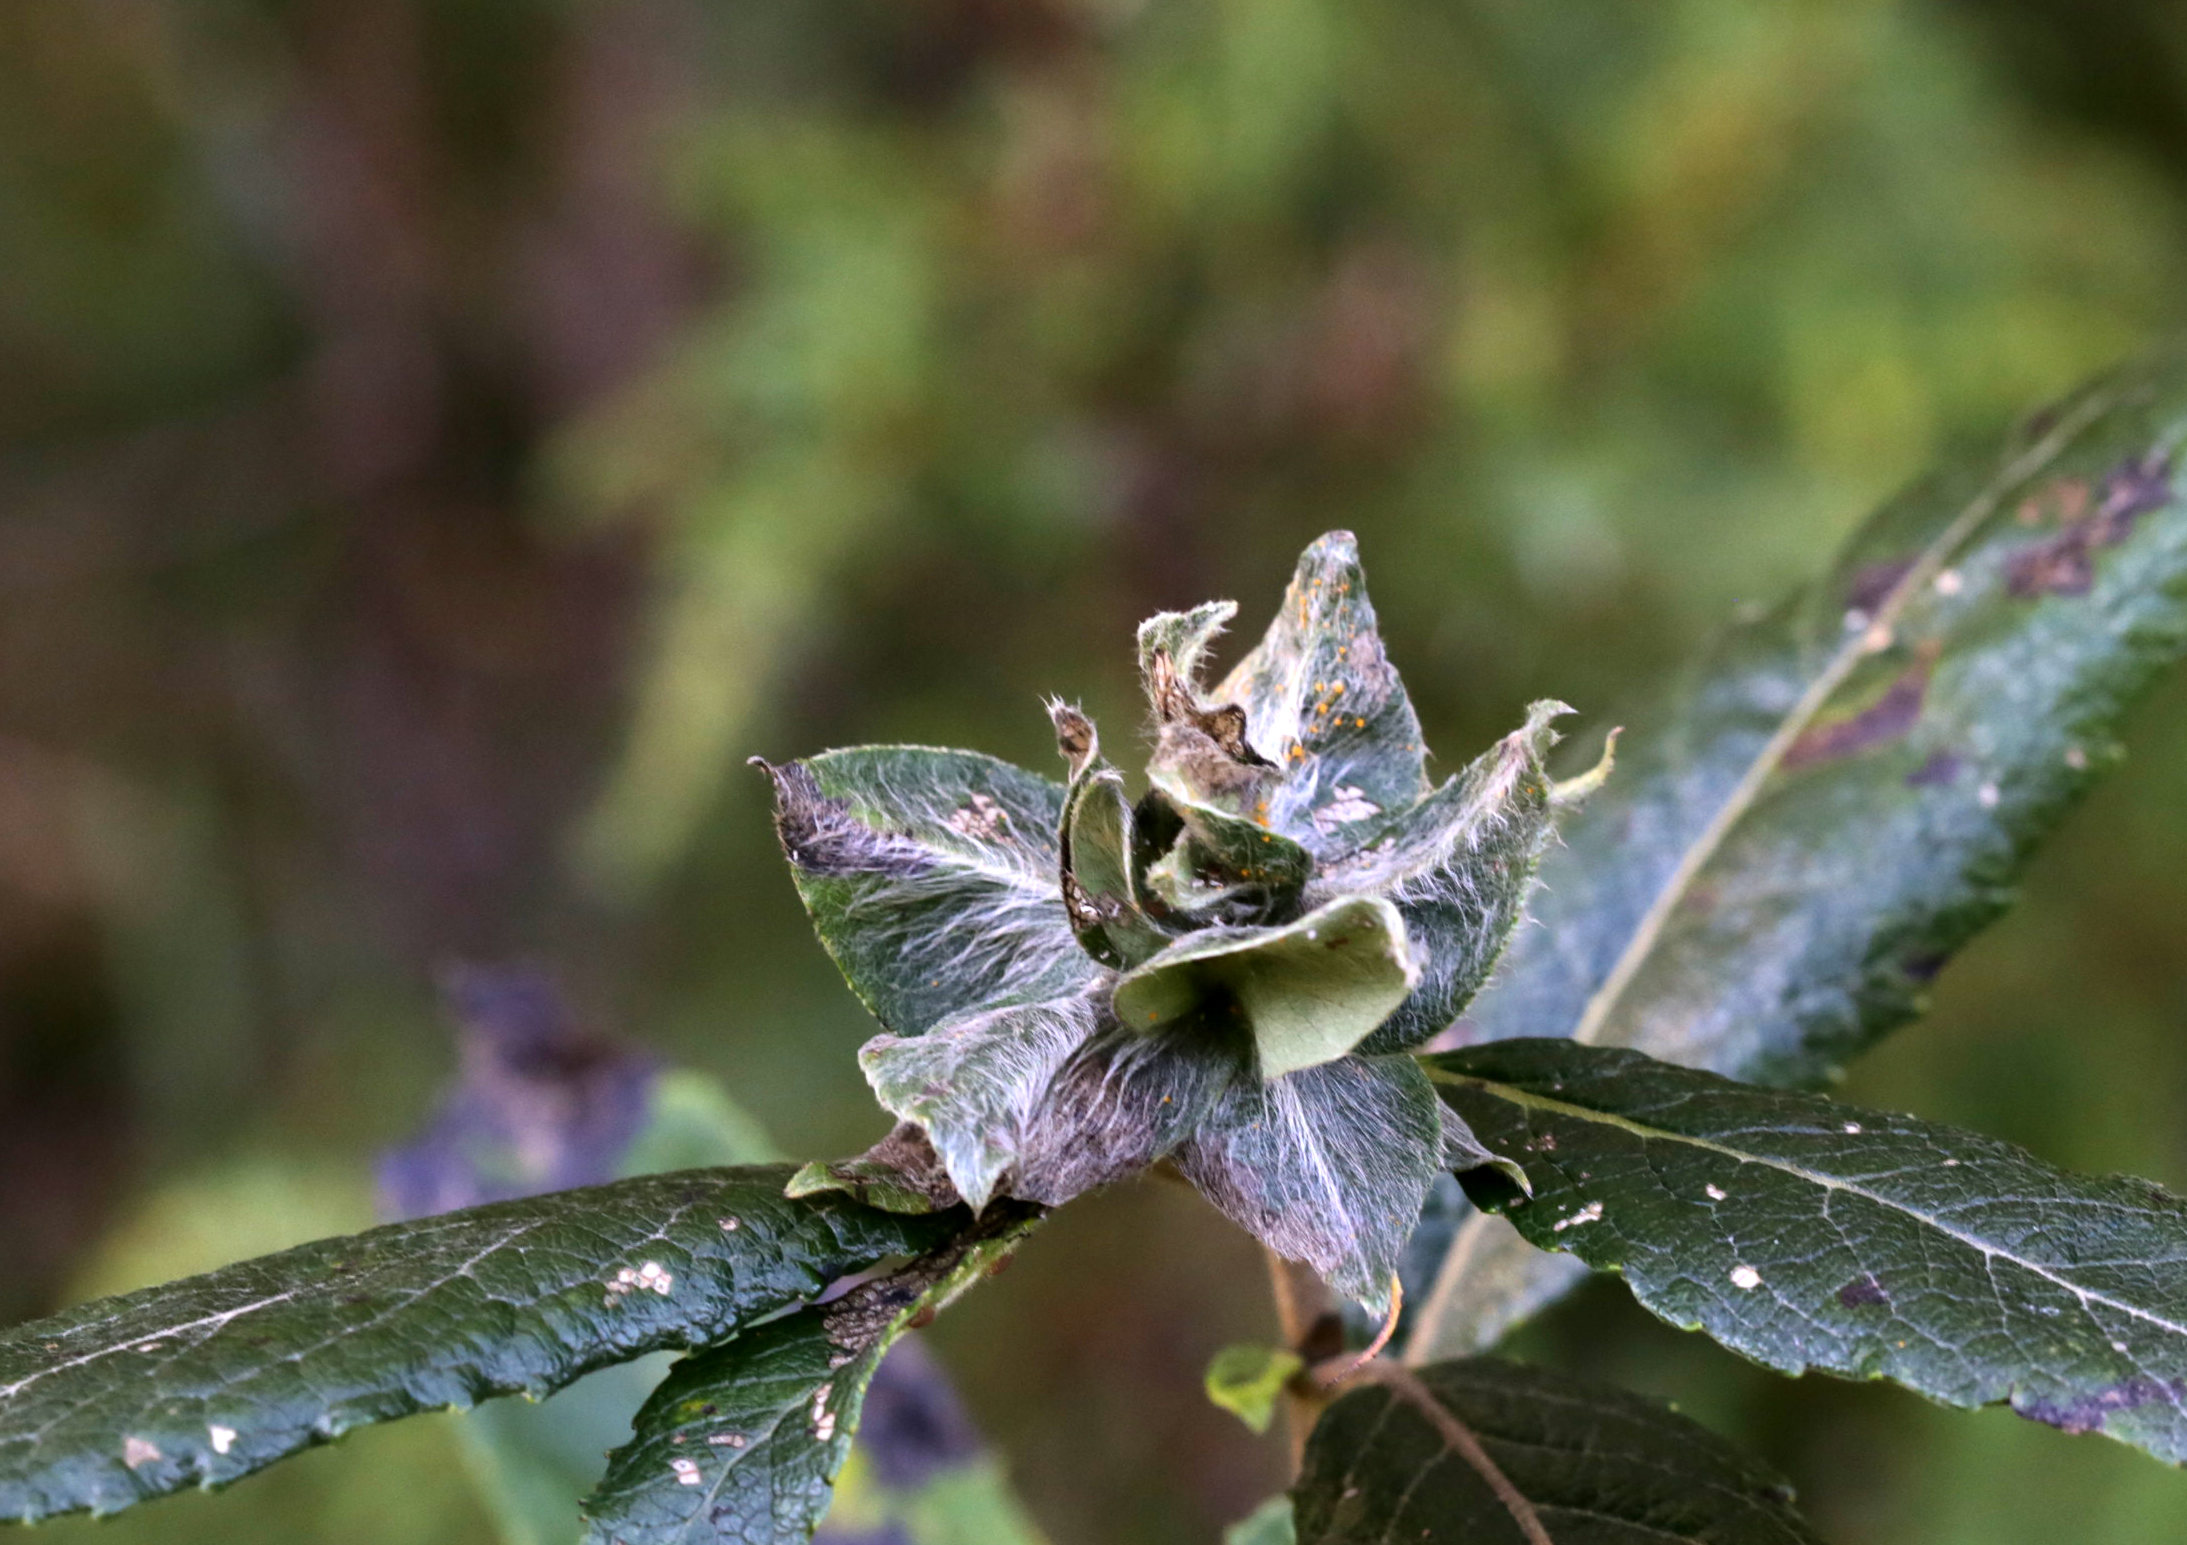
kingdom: Animalia
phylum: Arthropoda
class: Insecta
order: Diptera
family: Cecidomyiidae
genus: Rabdophaga
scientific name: Rabdophaga rosaria
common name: Willow rose gall midge
